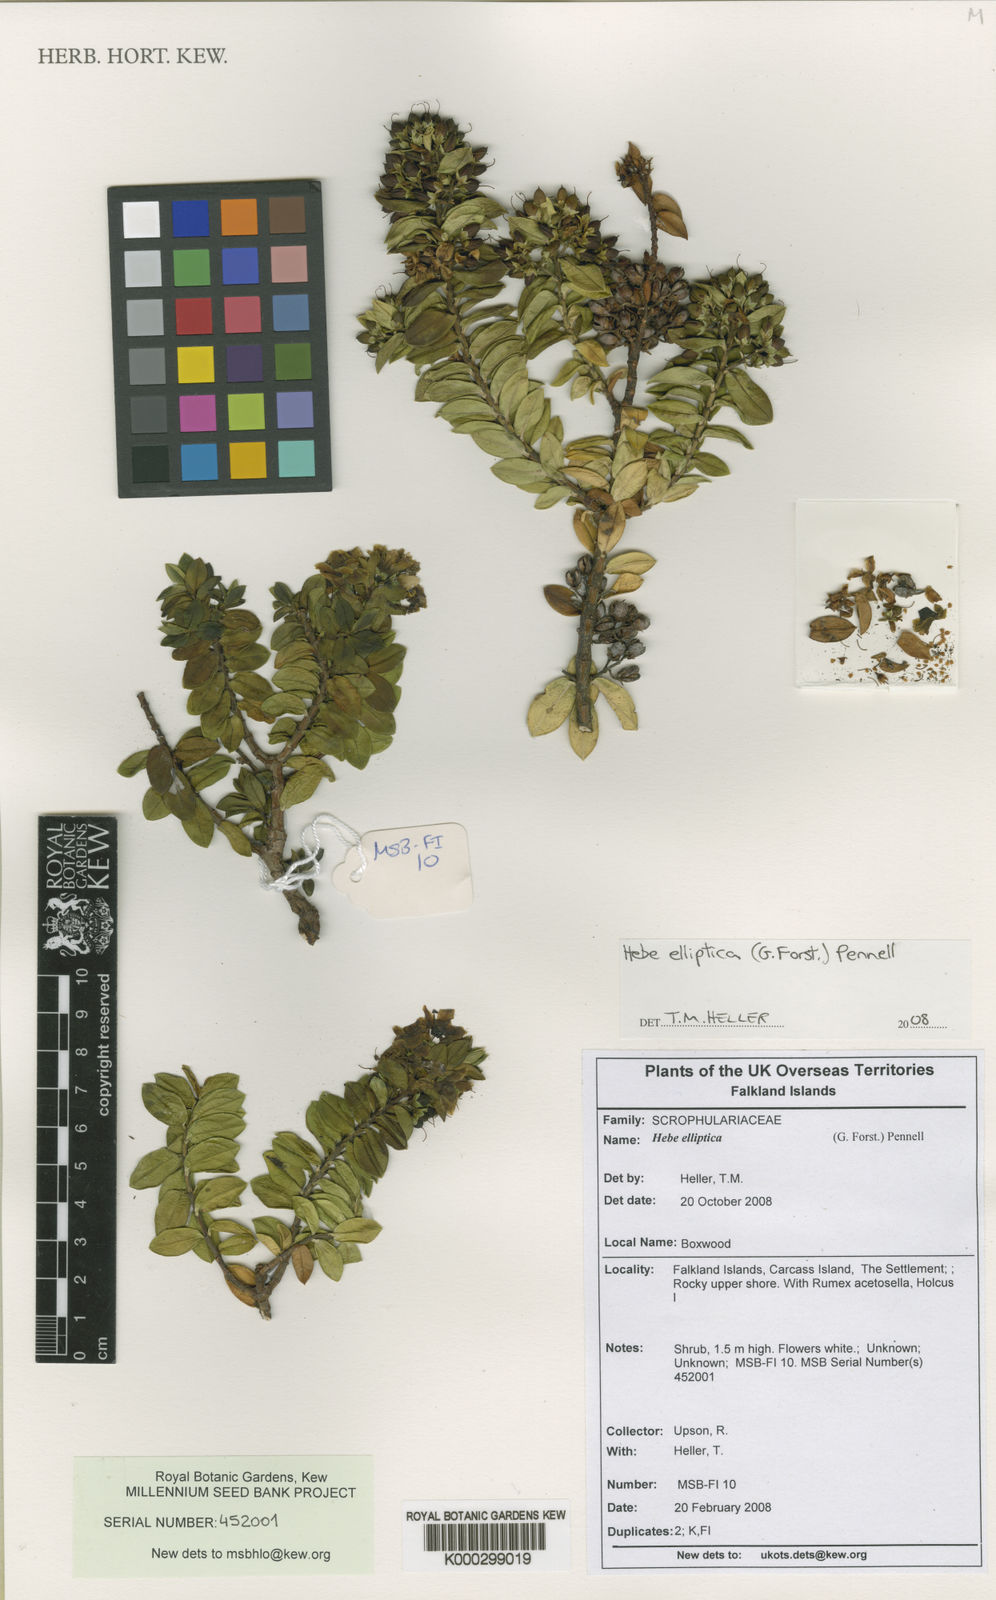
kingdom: Plantae
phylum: Tracheophyta
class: Magnoliopsida
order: Lamiales
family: Plantaginaceae
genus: Veronica
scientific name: Veronica elliptica
